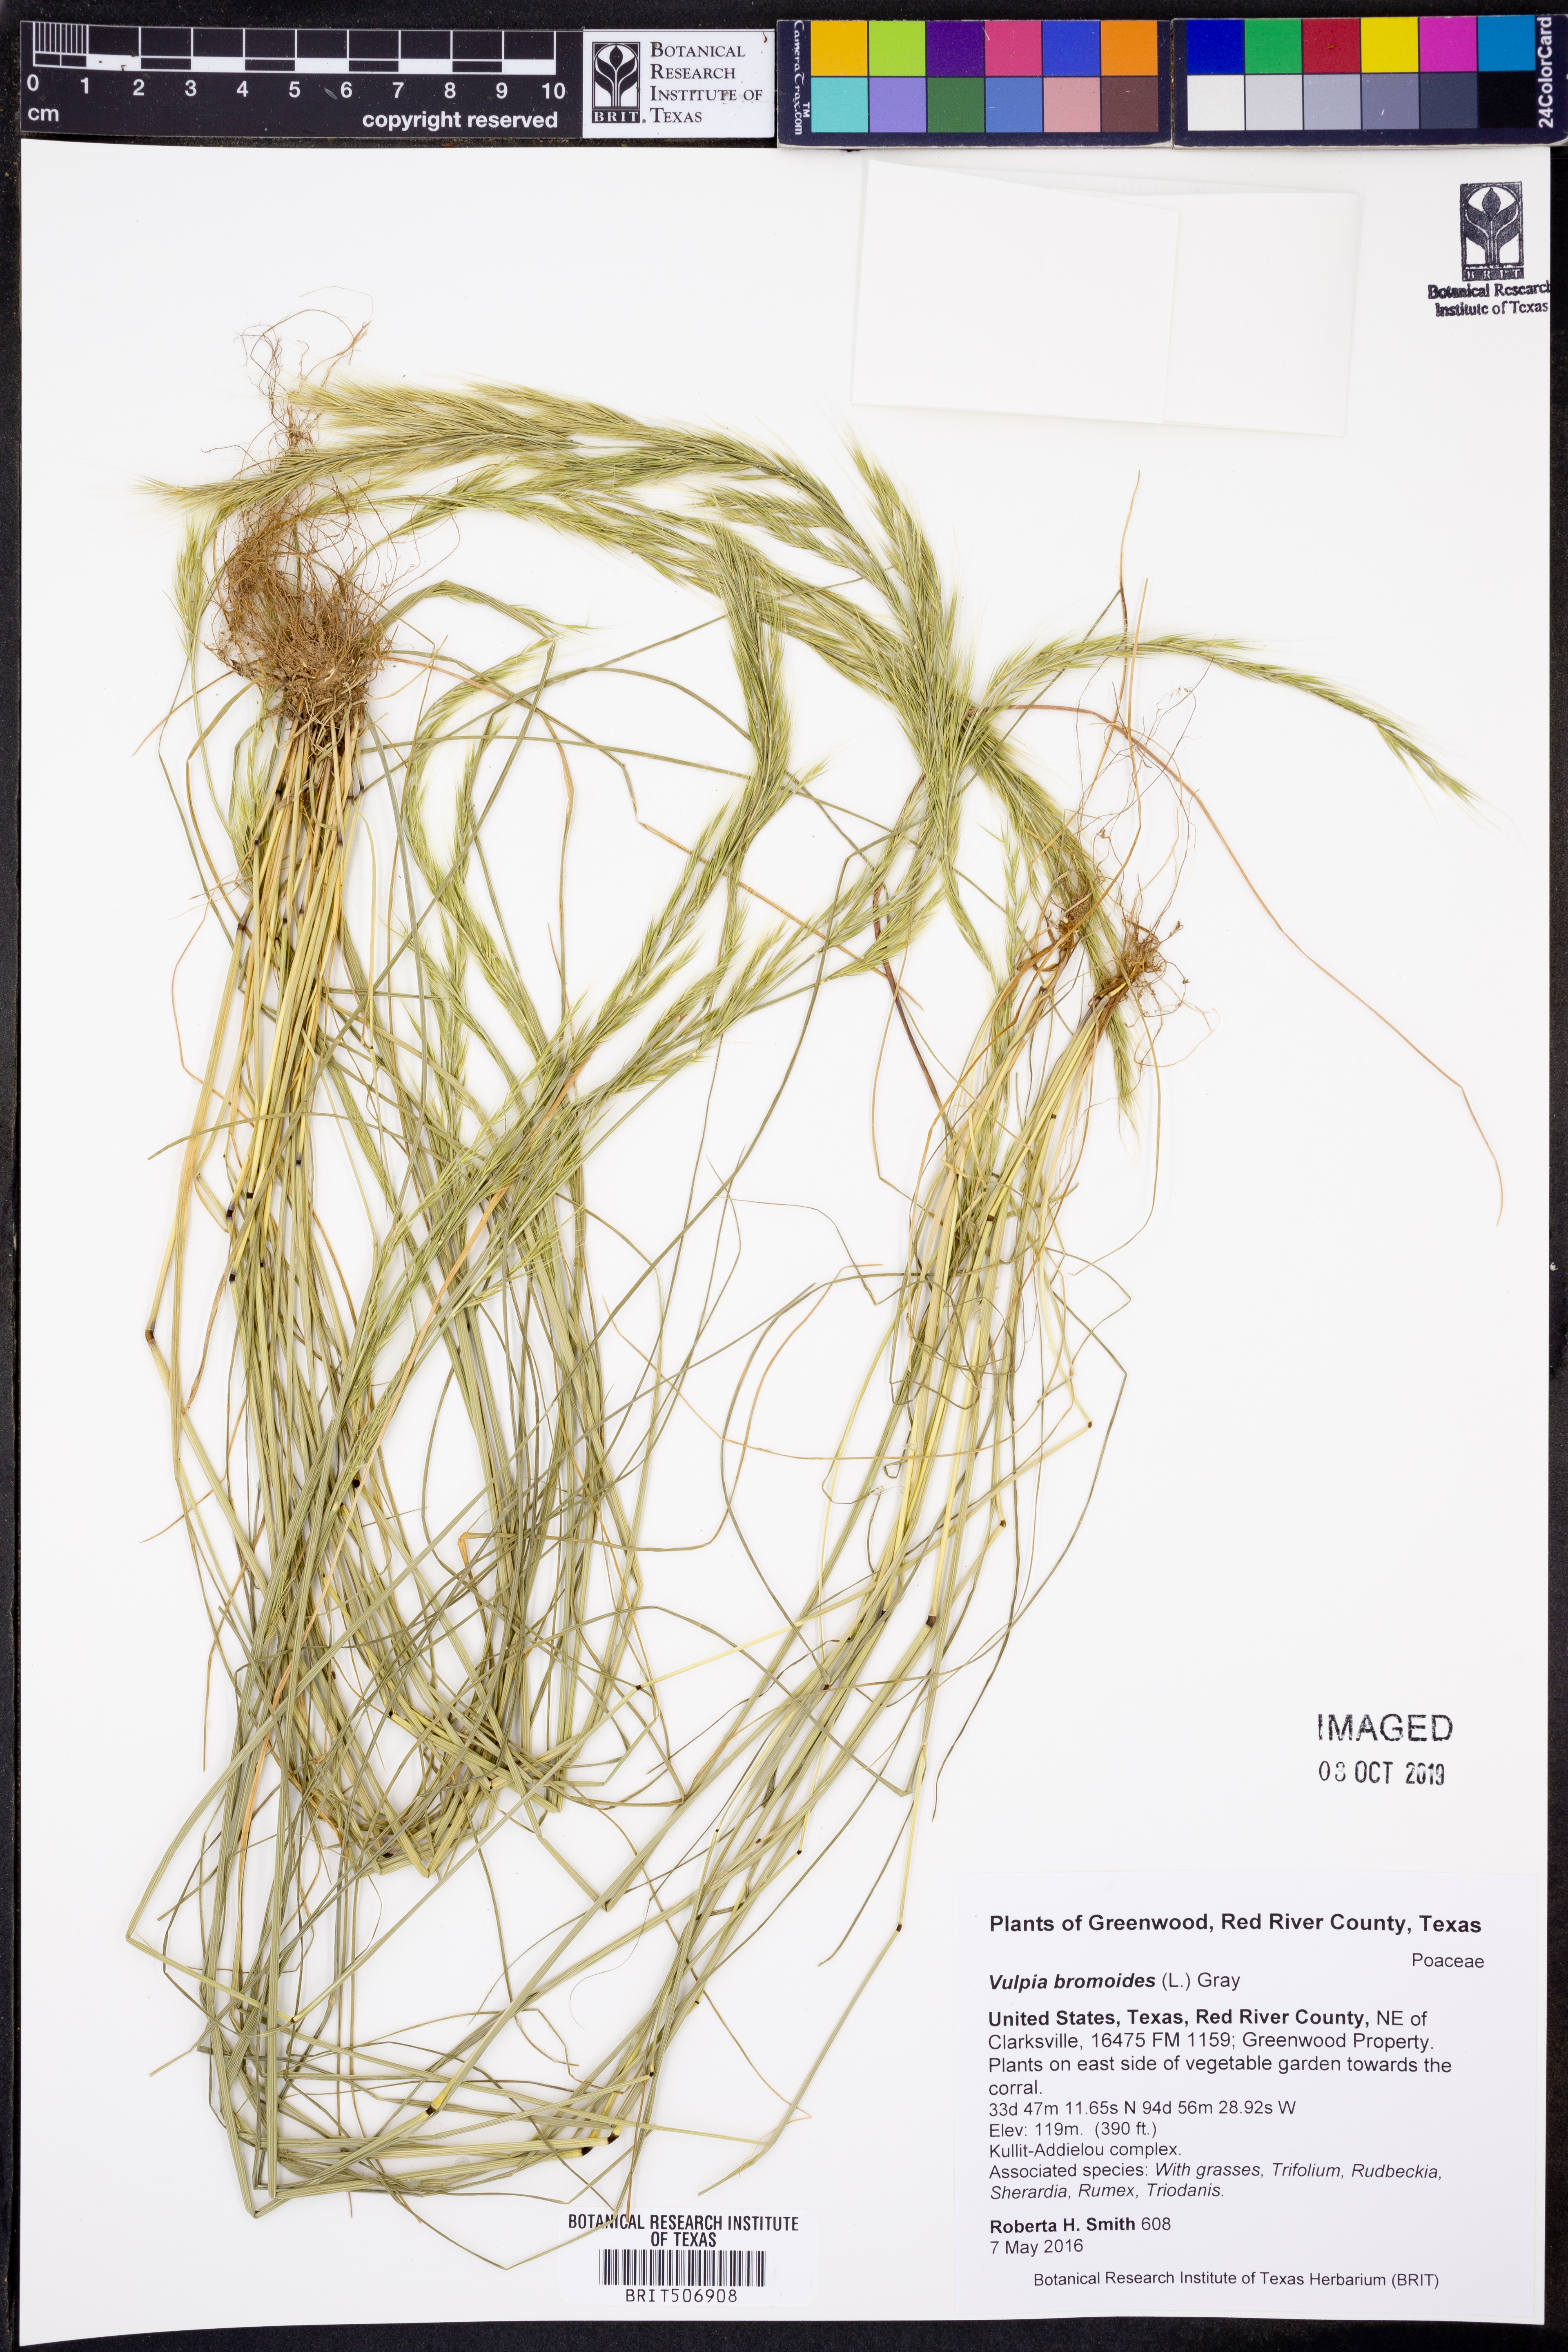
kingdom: Plantae
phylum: Tracheophyta
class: Liliopsida
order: Poales
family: Poaceae
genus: Festuca
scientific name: Festuca bromoides
